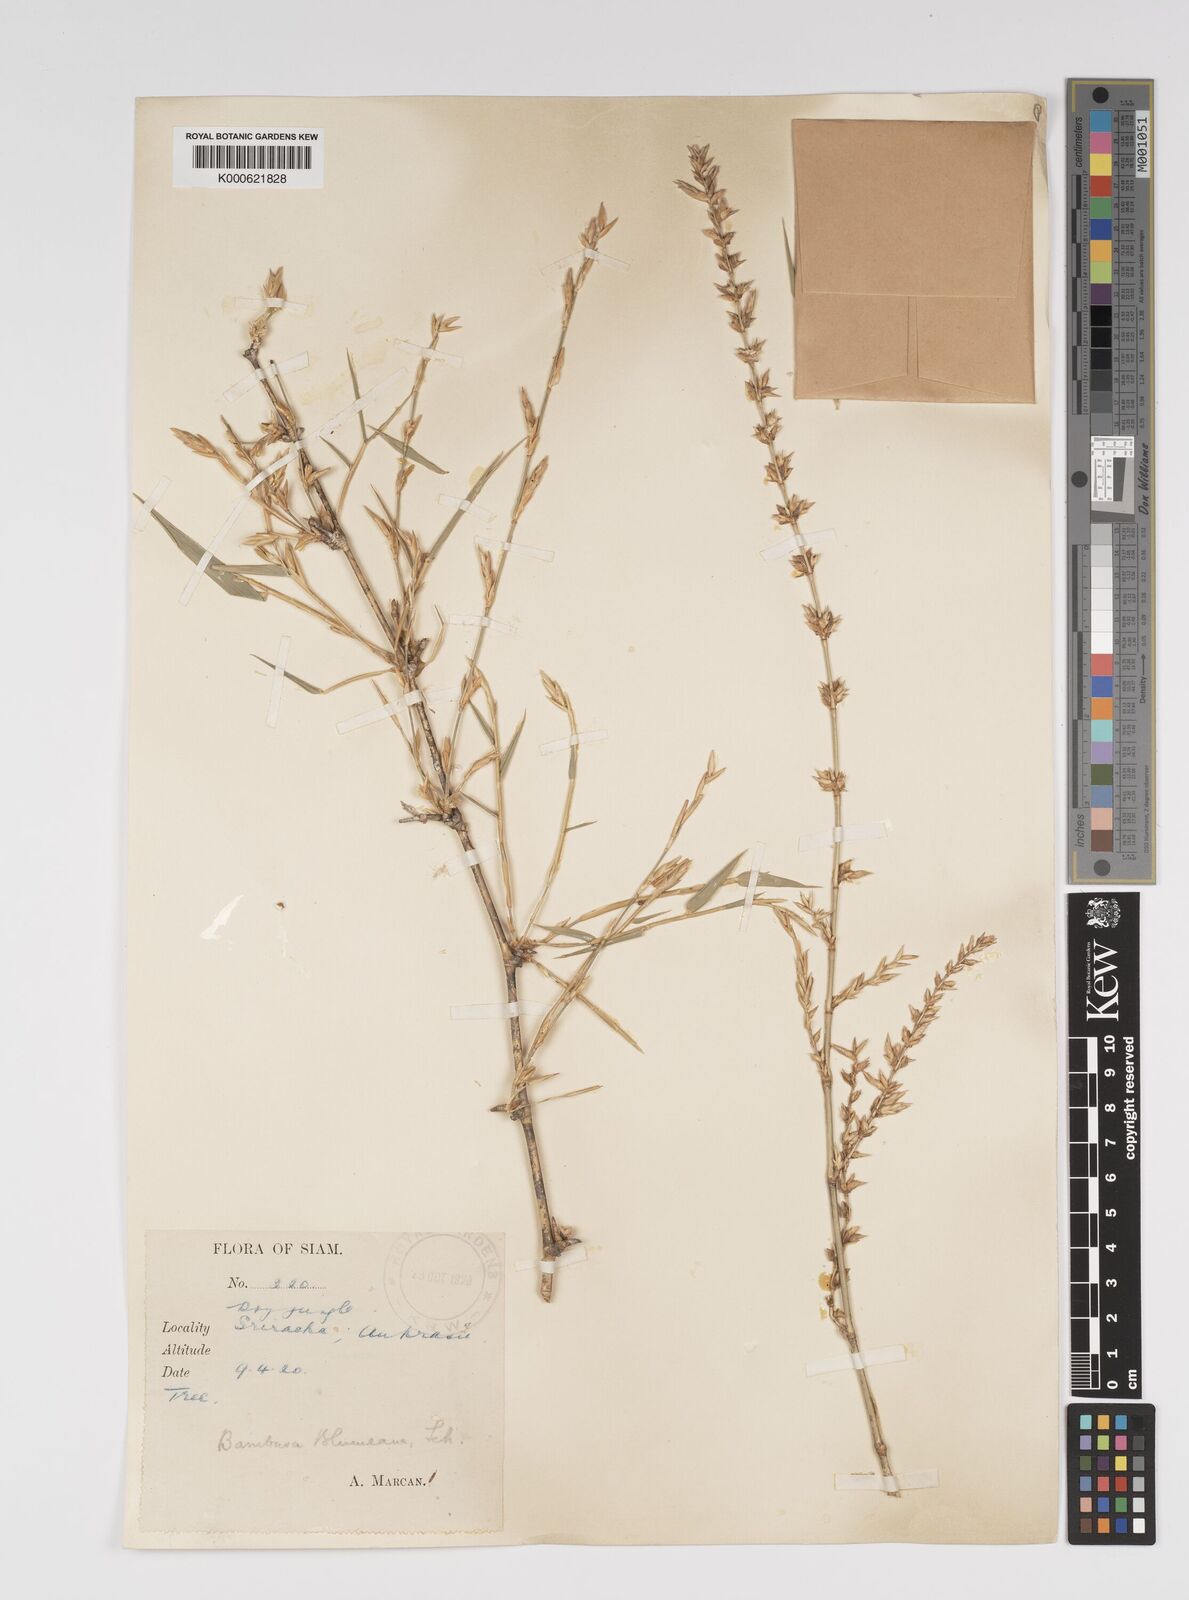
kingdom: Plantae
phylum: Tracheophyta
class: Liliopsida
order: Poales
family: Poaceae
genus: Bambusa
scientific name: Bambusa spinosa
